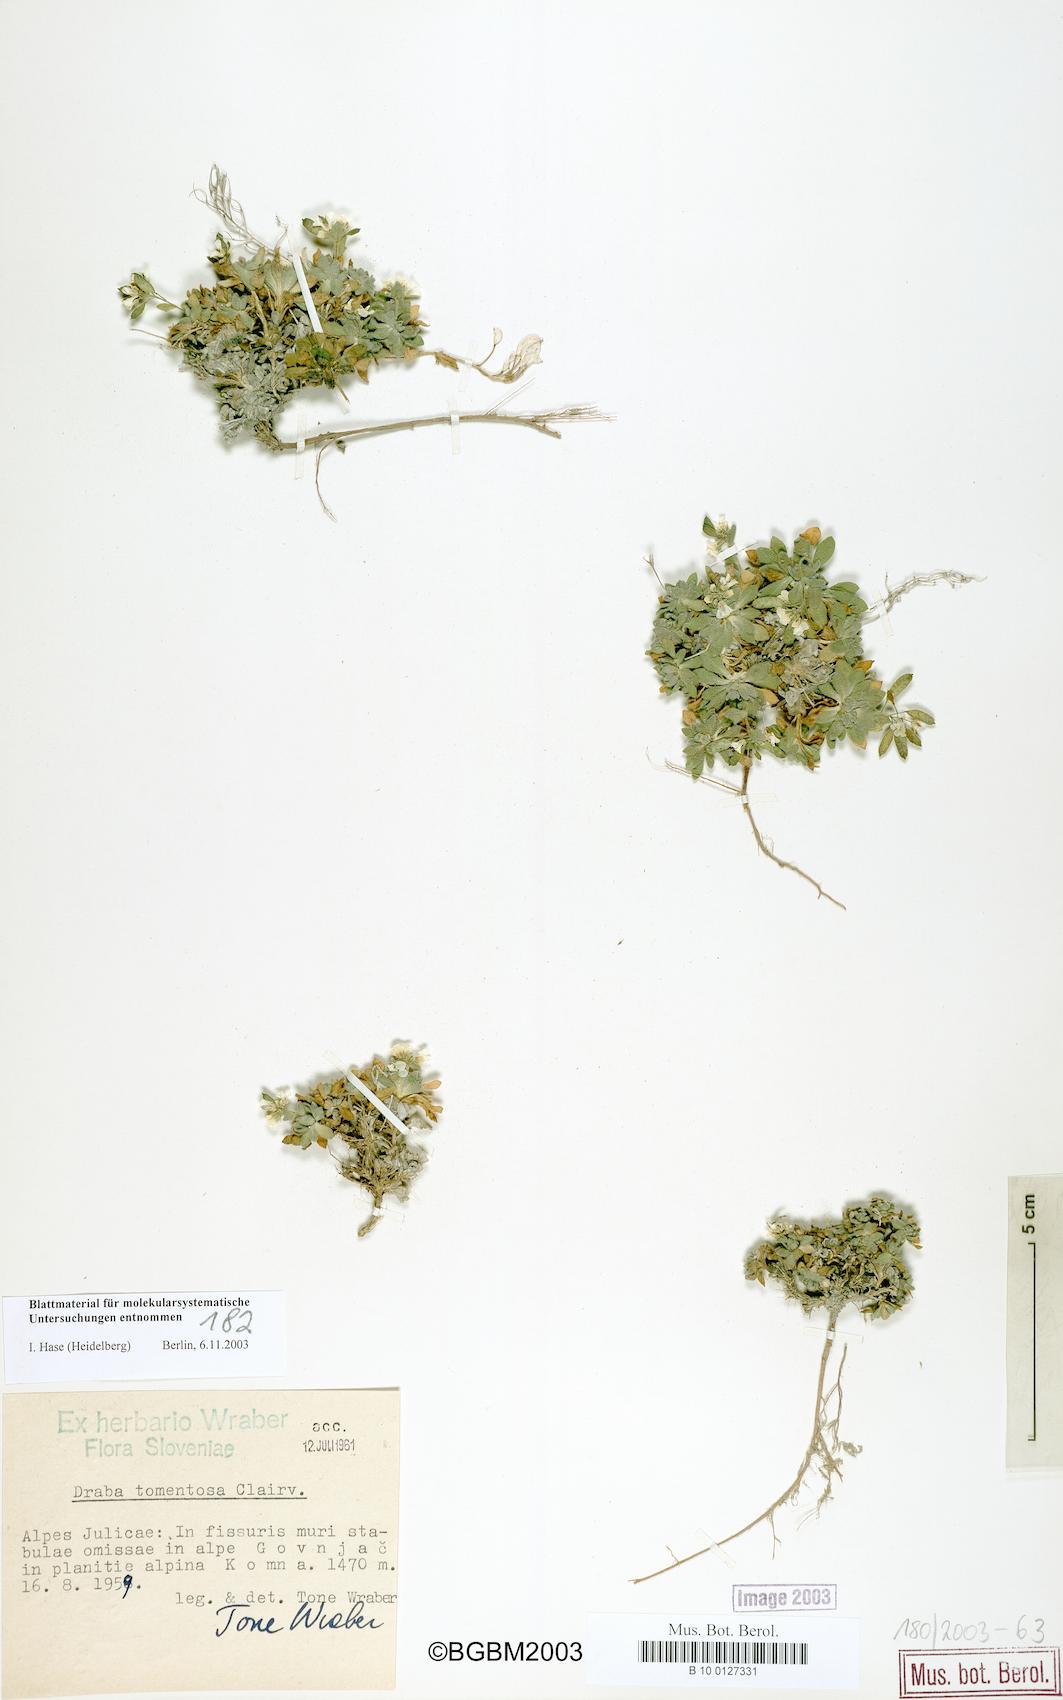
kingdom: Plantae
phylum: Tracheophyta
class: Magnoliopsida
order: Brassicales
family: Brassicaceae
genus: Draba
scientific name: Draba tomentosa
